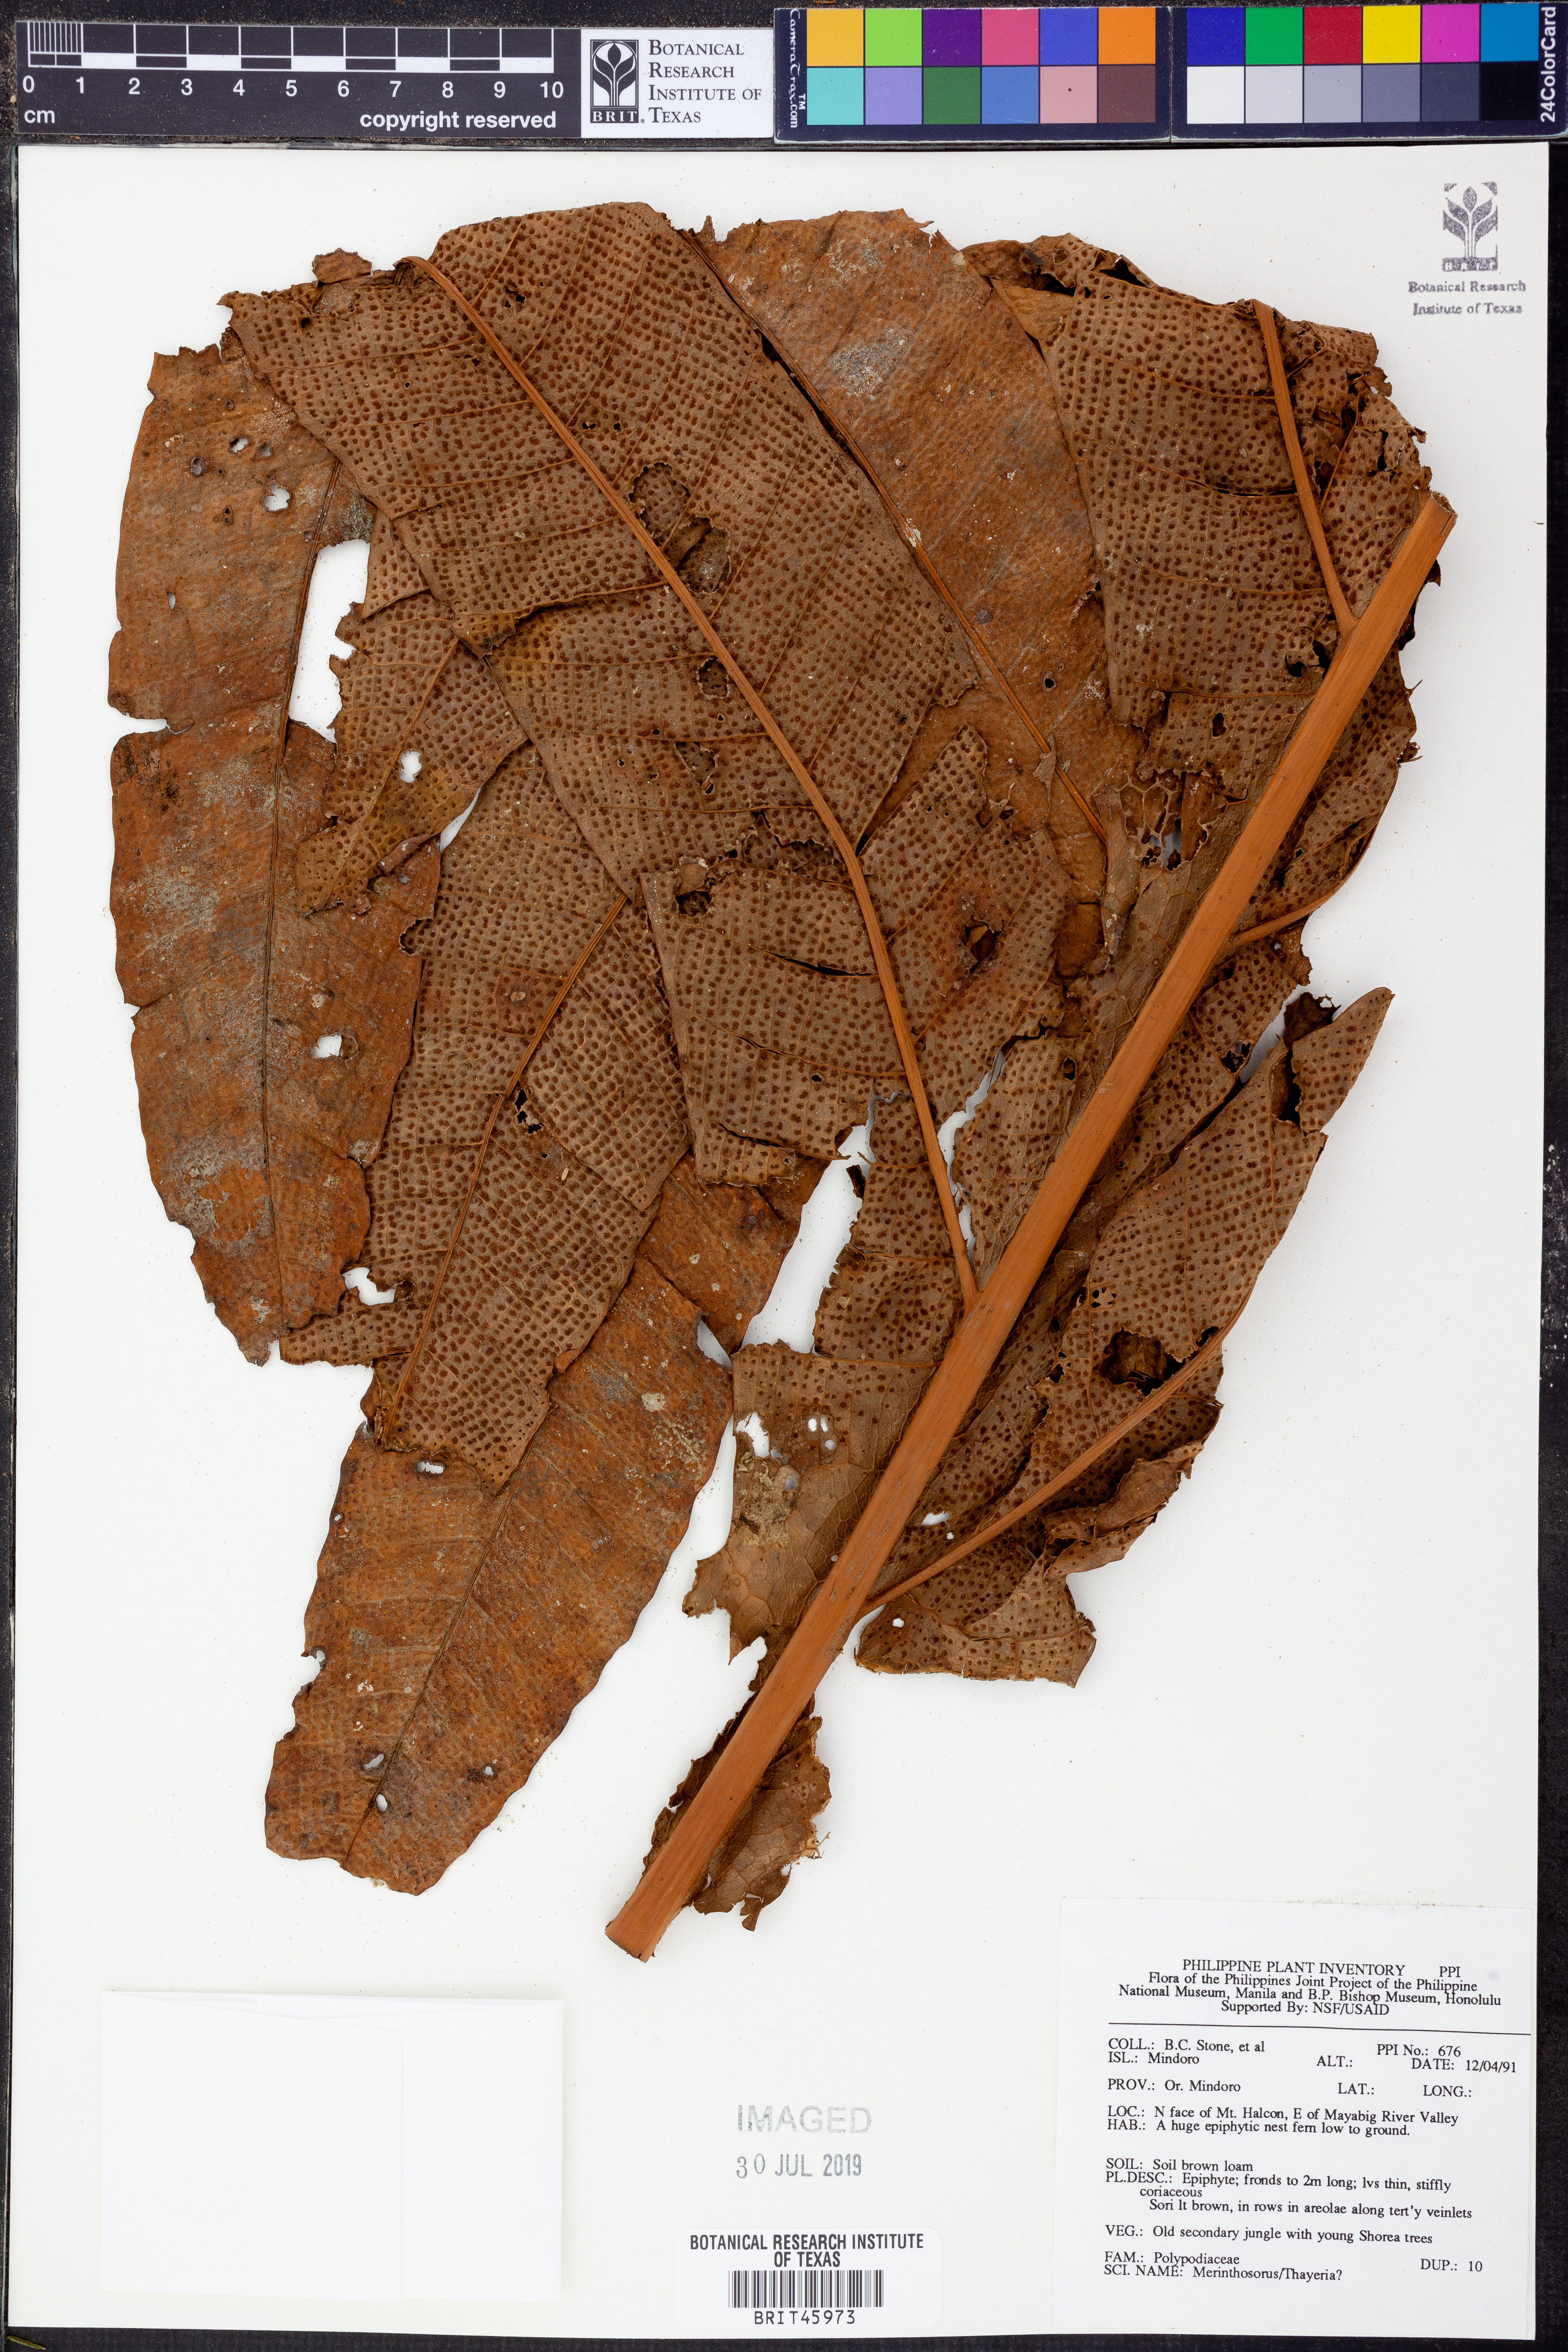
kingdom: Plantae
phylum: Tracheophyta
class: Polypodiopsida
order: Polypodiales
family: Polypodiaceae
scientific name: Polypodiaceae
